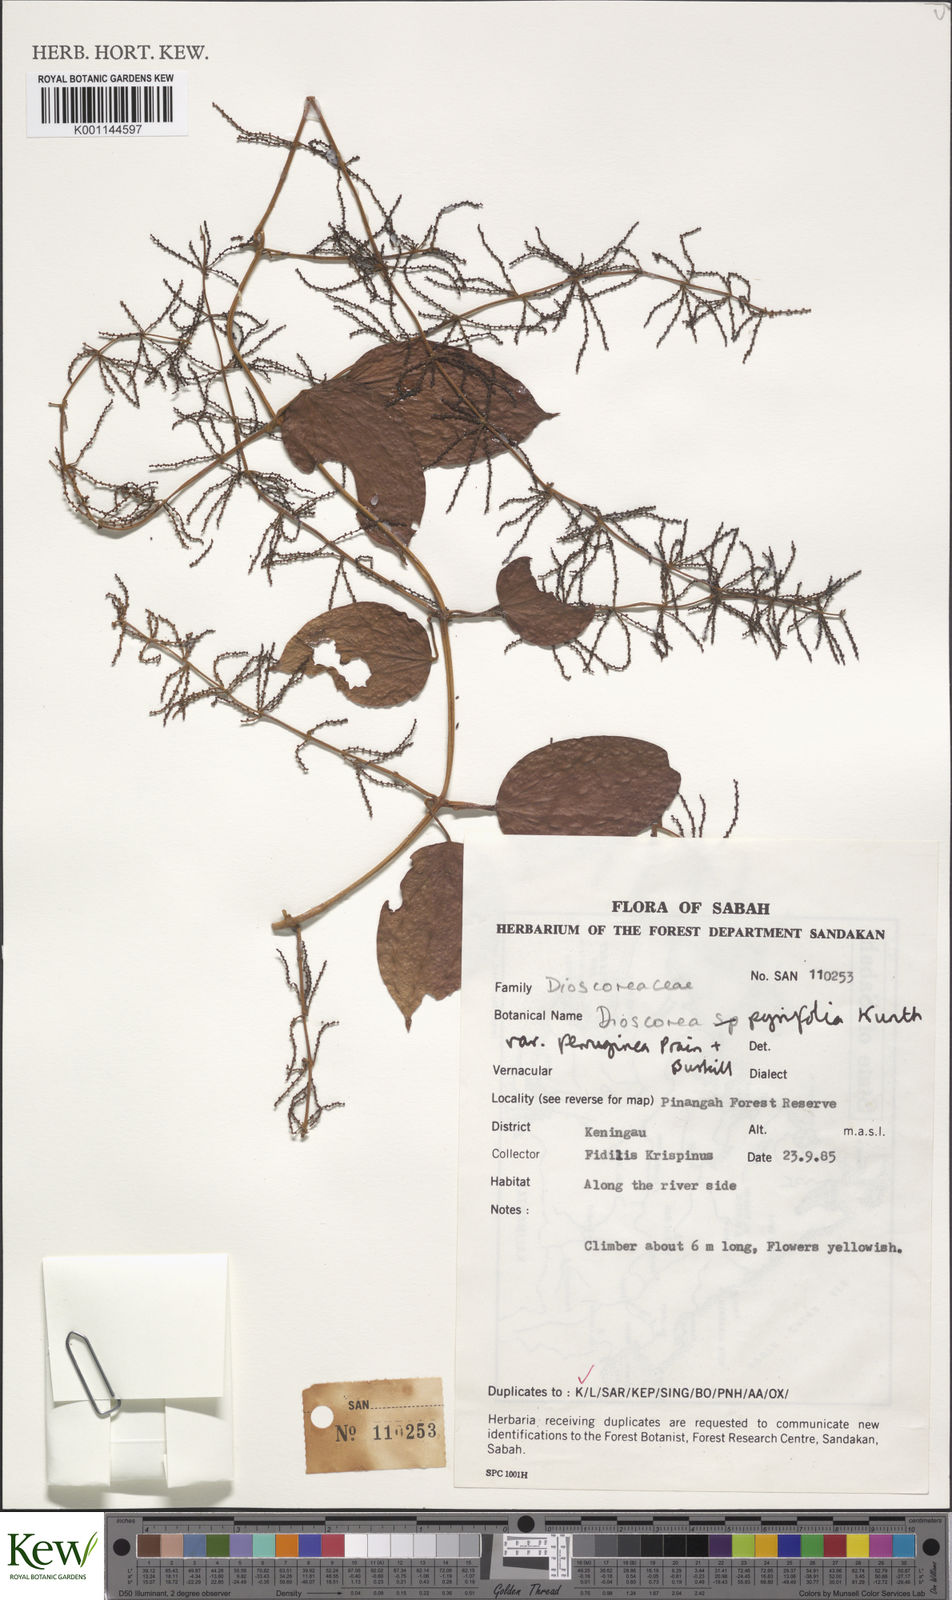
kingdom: Plantae
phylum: Tracheophyta
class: Liliopsida
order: Dioscoreales
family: Dioscoreaceae
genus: Dioscorea
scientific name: Dioscorea pyrifolia
